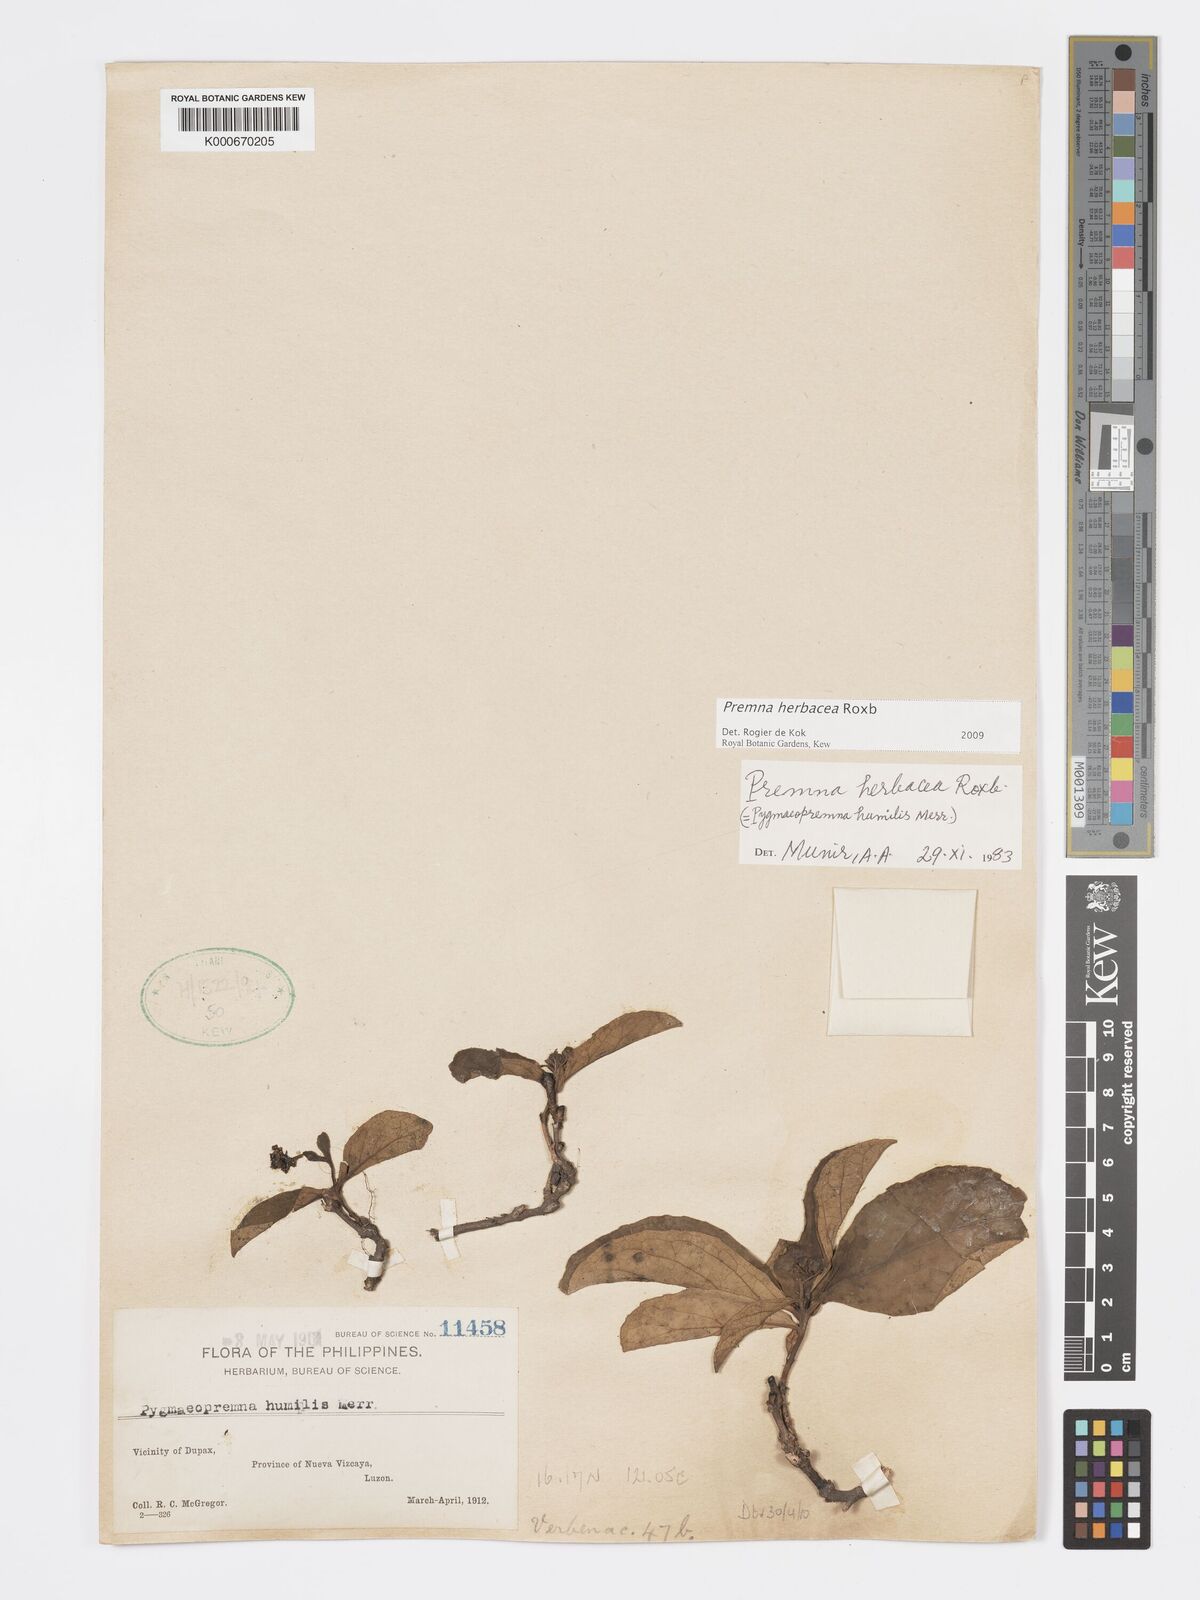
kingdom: Plantae
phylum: Tracheophyta
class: Magnoliopsida
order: Lamiales
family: Lamiaceae
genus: Premna
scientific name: Premna herbacea
